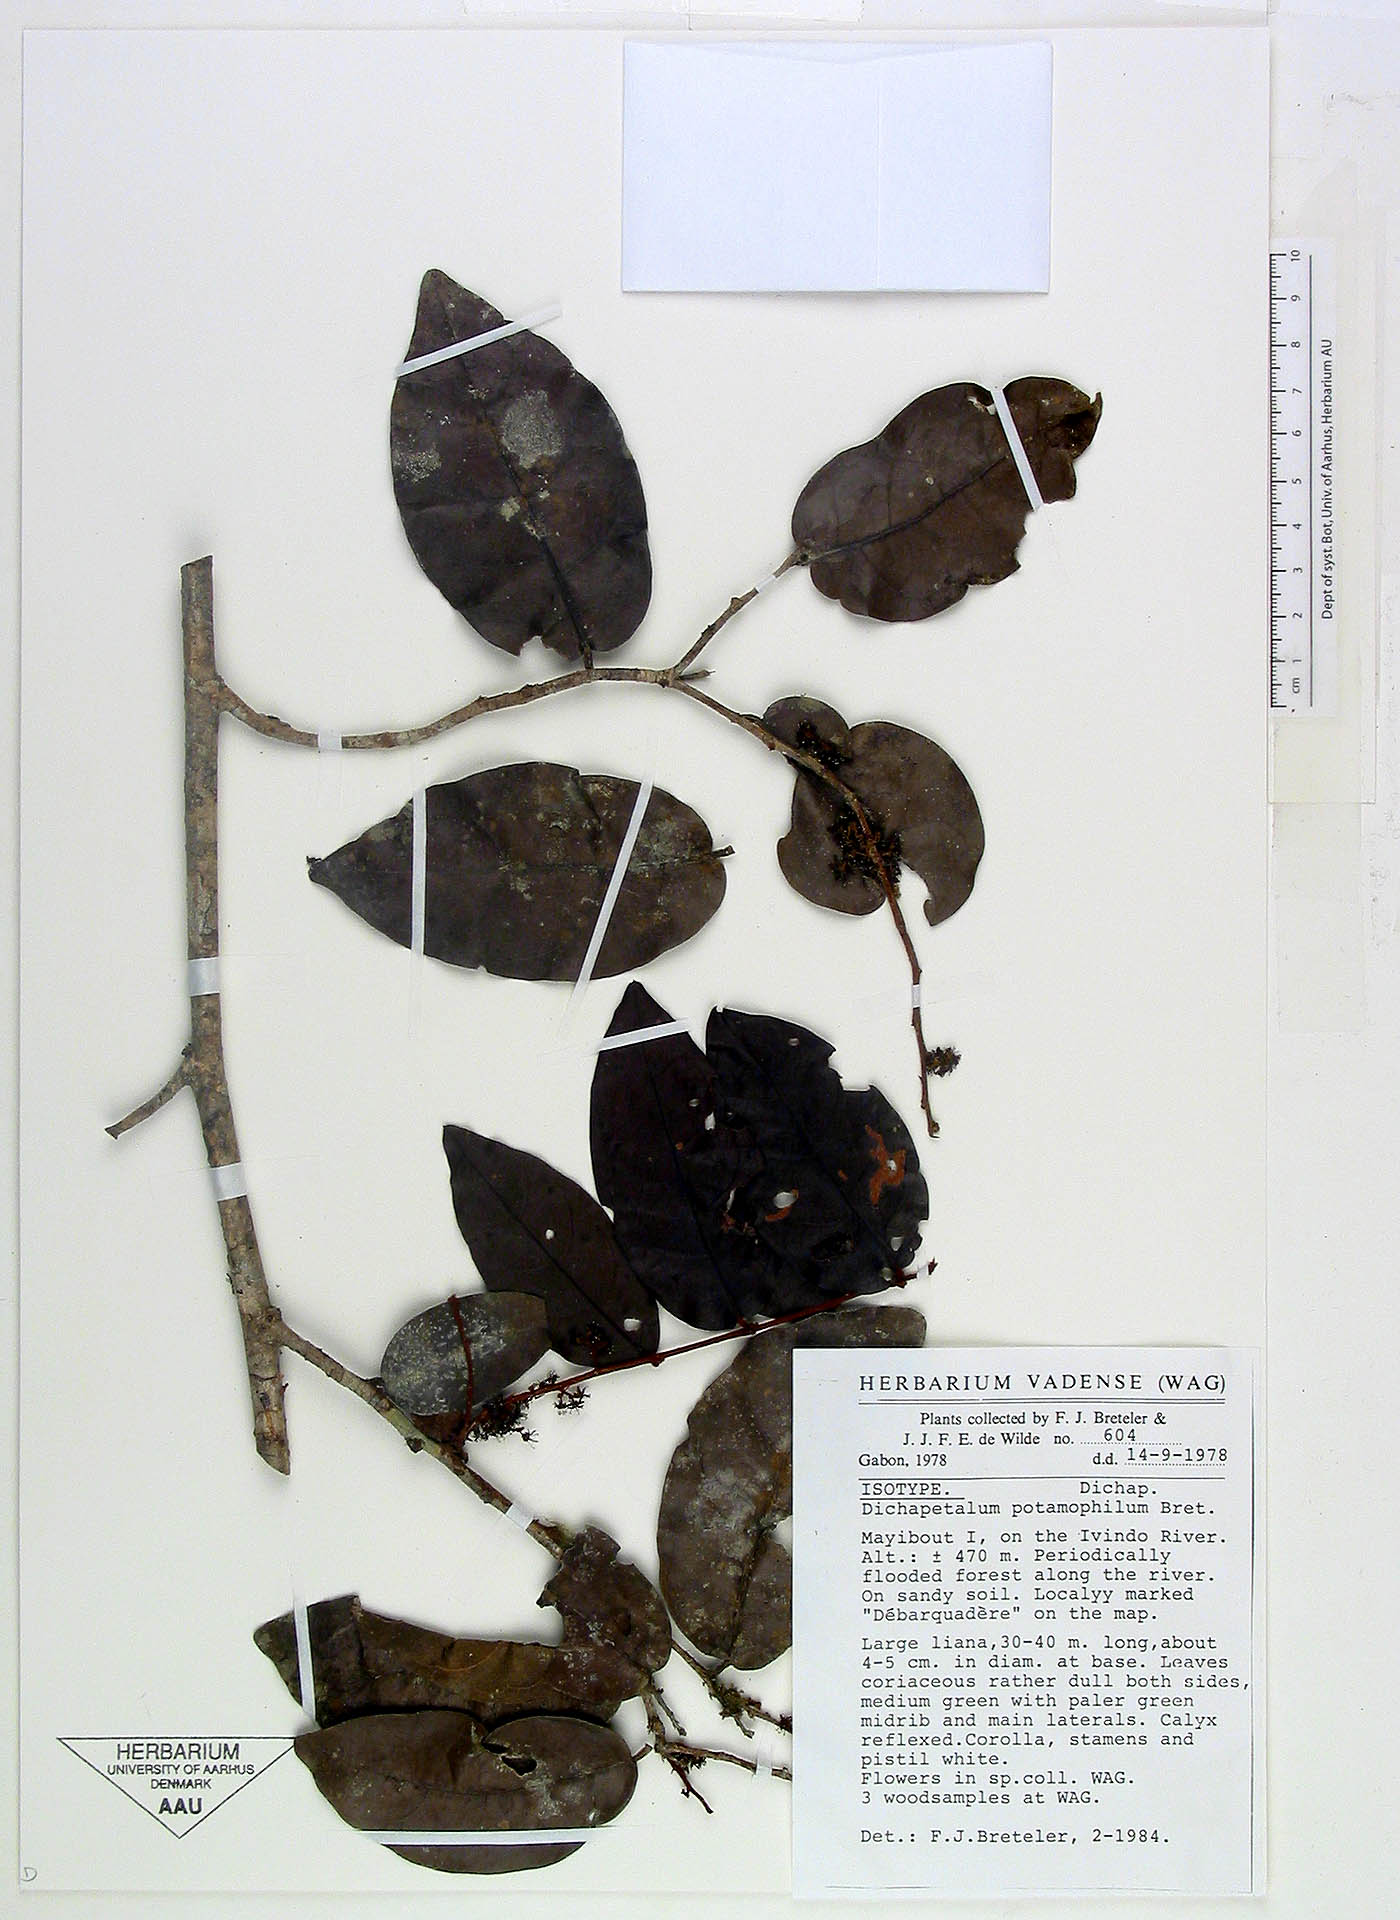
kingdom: Plantae
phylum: Tracheophyta
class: Magnoliopsida
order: Malpighiales
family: Dichapetalaceae
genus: Dichapetalum
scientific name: Dichapetalum potamophilum
